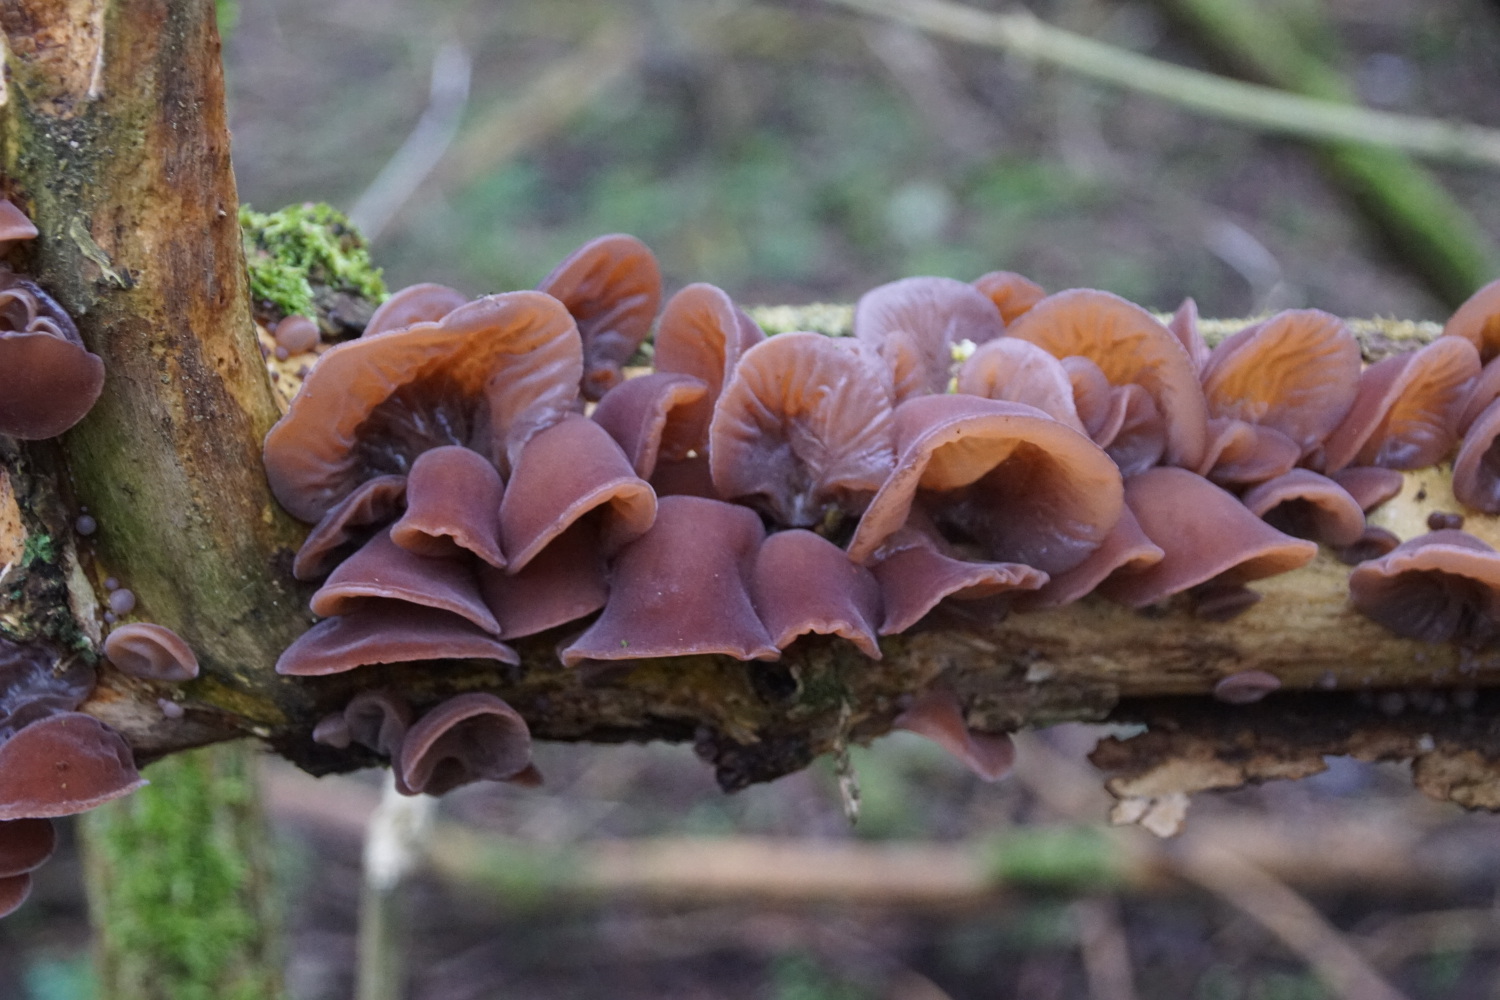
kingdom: Fungi
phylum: Basidiomycota
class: Agaricomycetes
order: Auriculariales
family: Auriculariaceae
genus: Auricularia
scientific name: Auricularia auricula-judae
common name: almindelig judasøre
